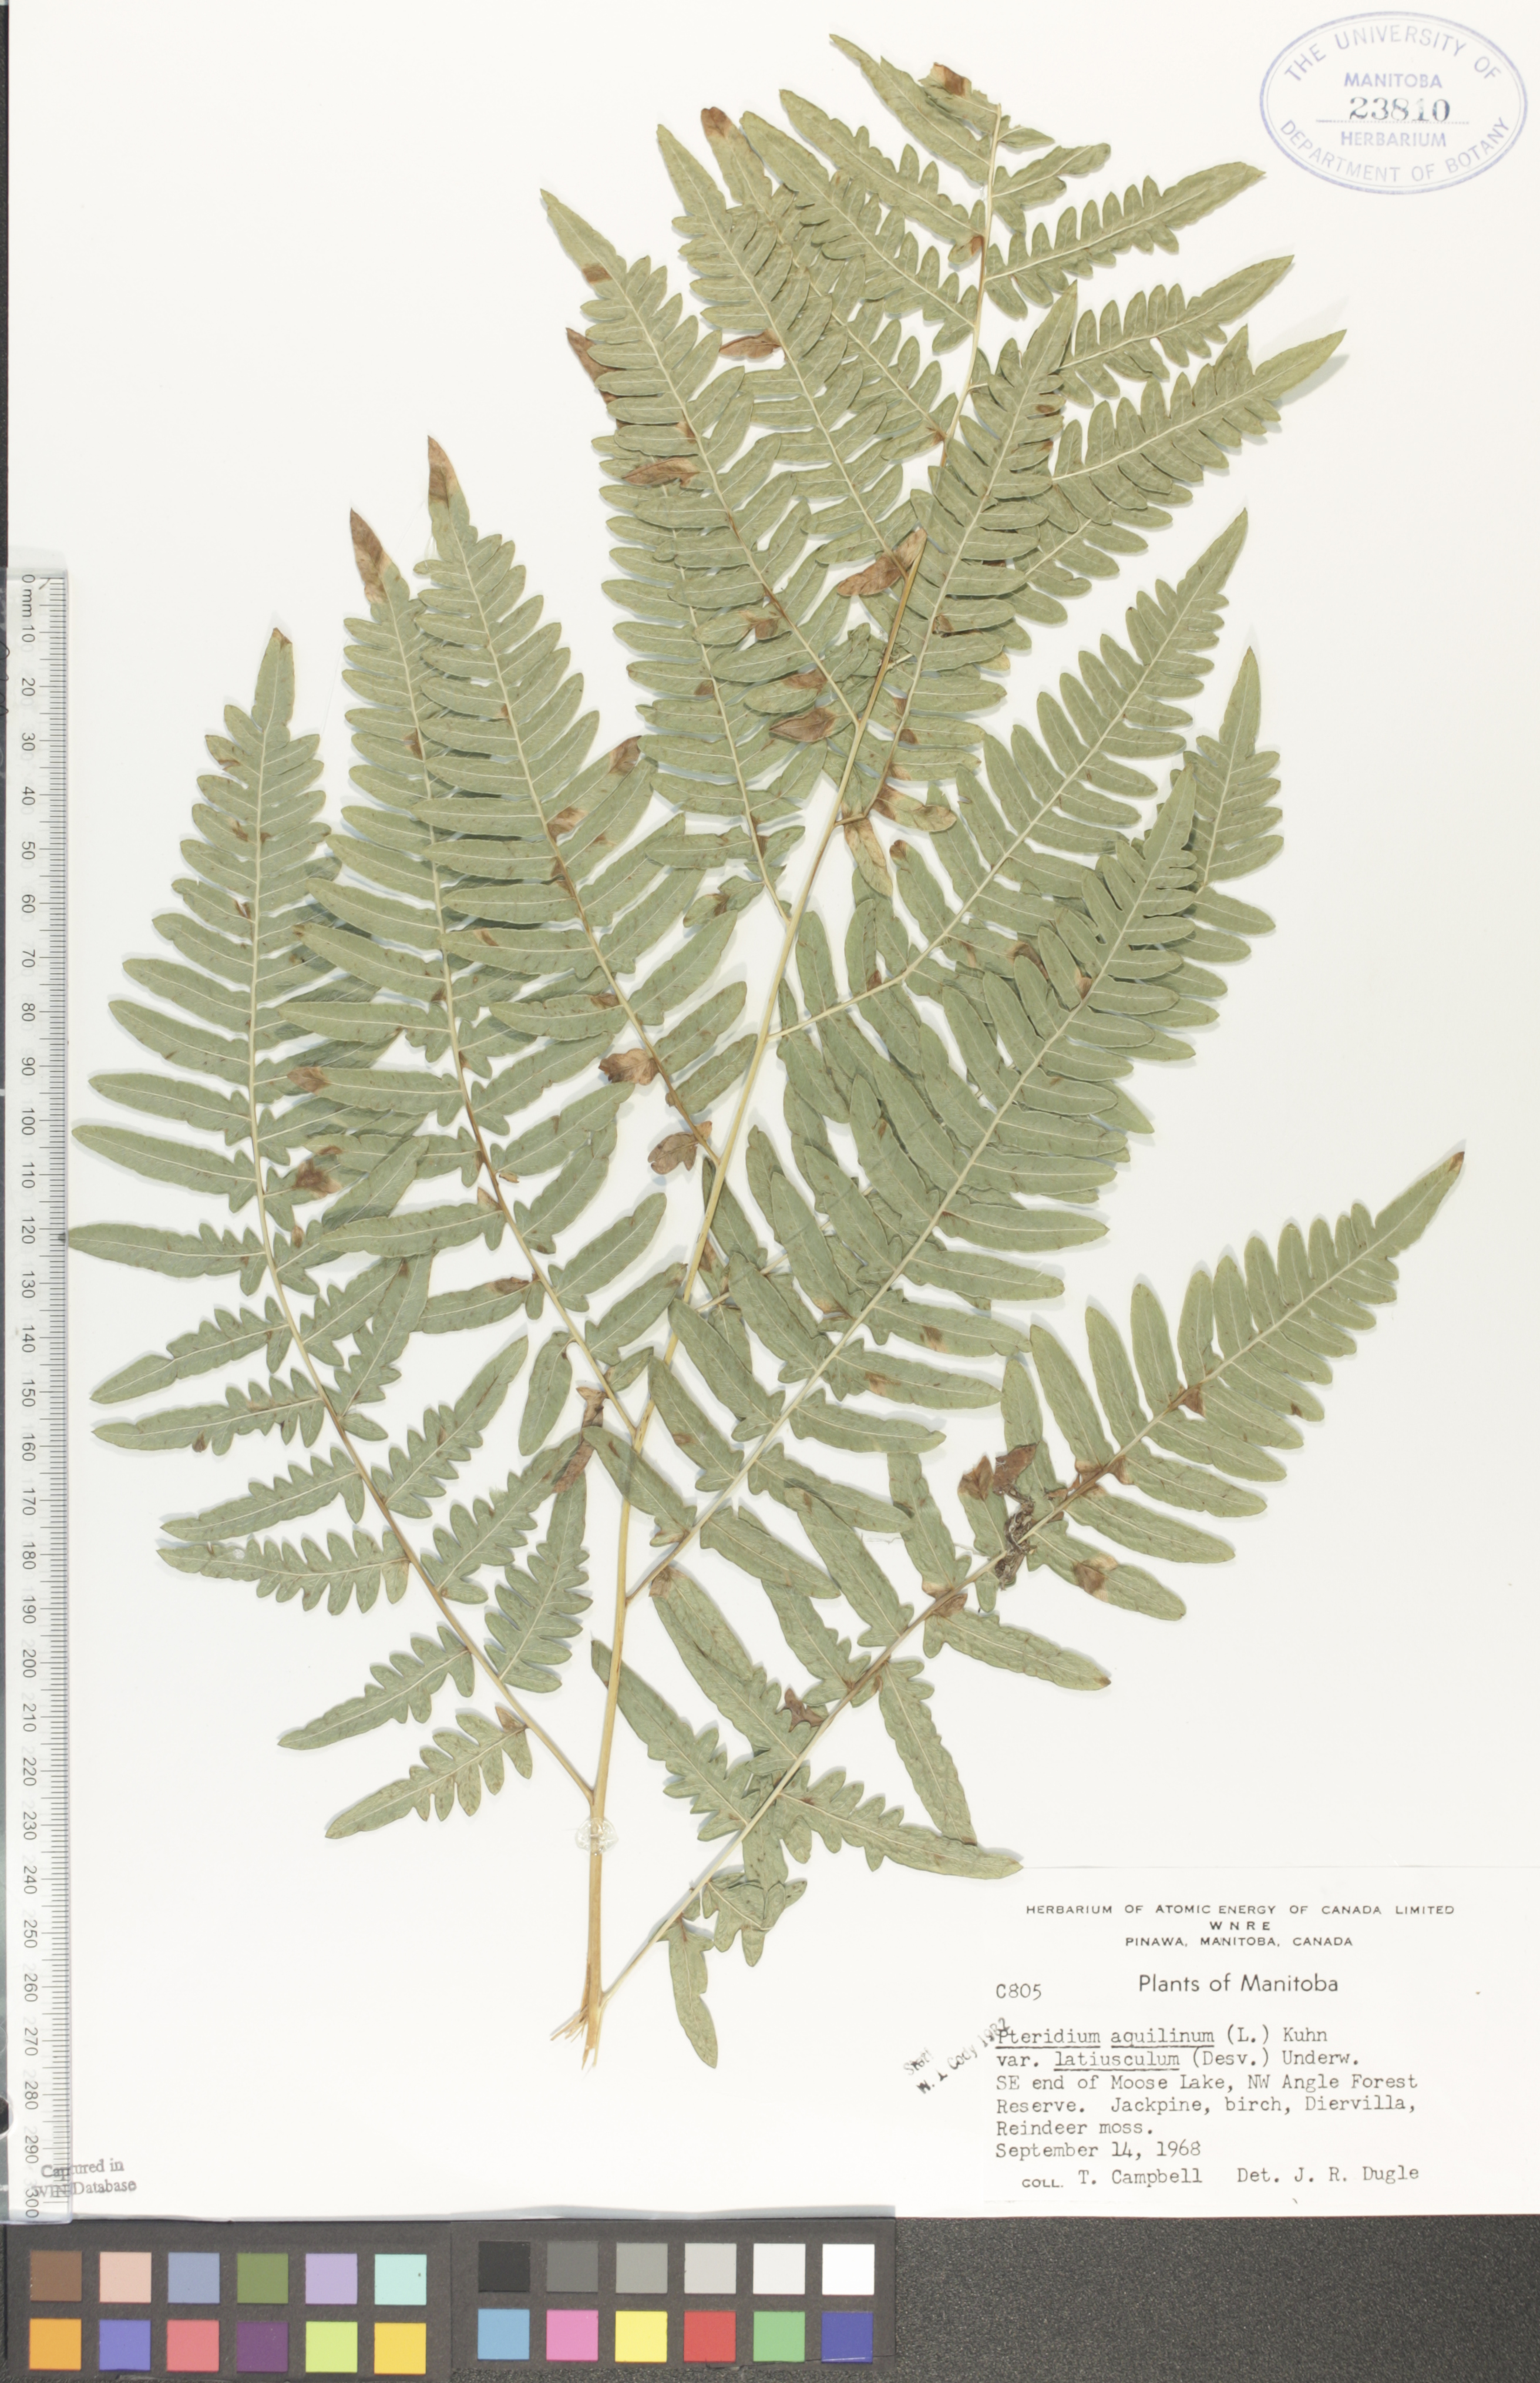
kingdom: Plantae
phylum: Tracheophyta
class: Polypodiopsida
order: Polypodiales
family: Dennstaedtiaceae
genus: Pteridium
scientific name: Pteridium aquilinum
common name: Bracken
